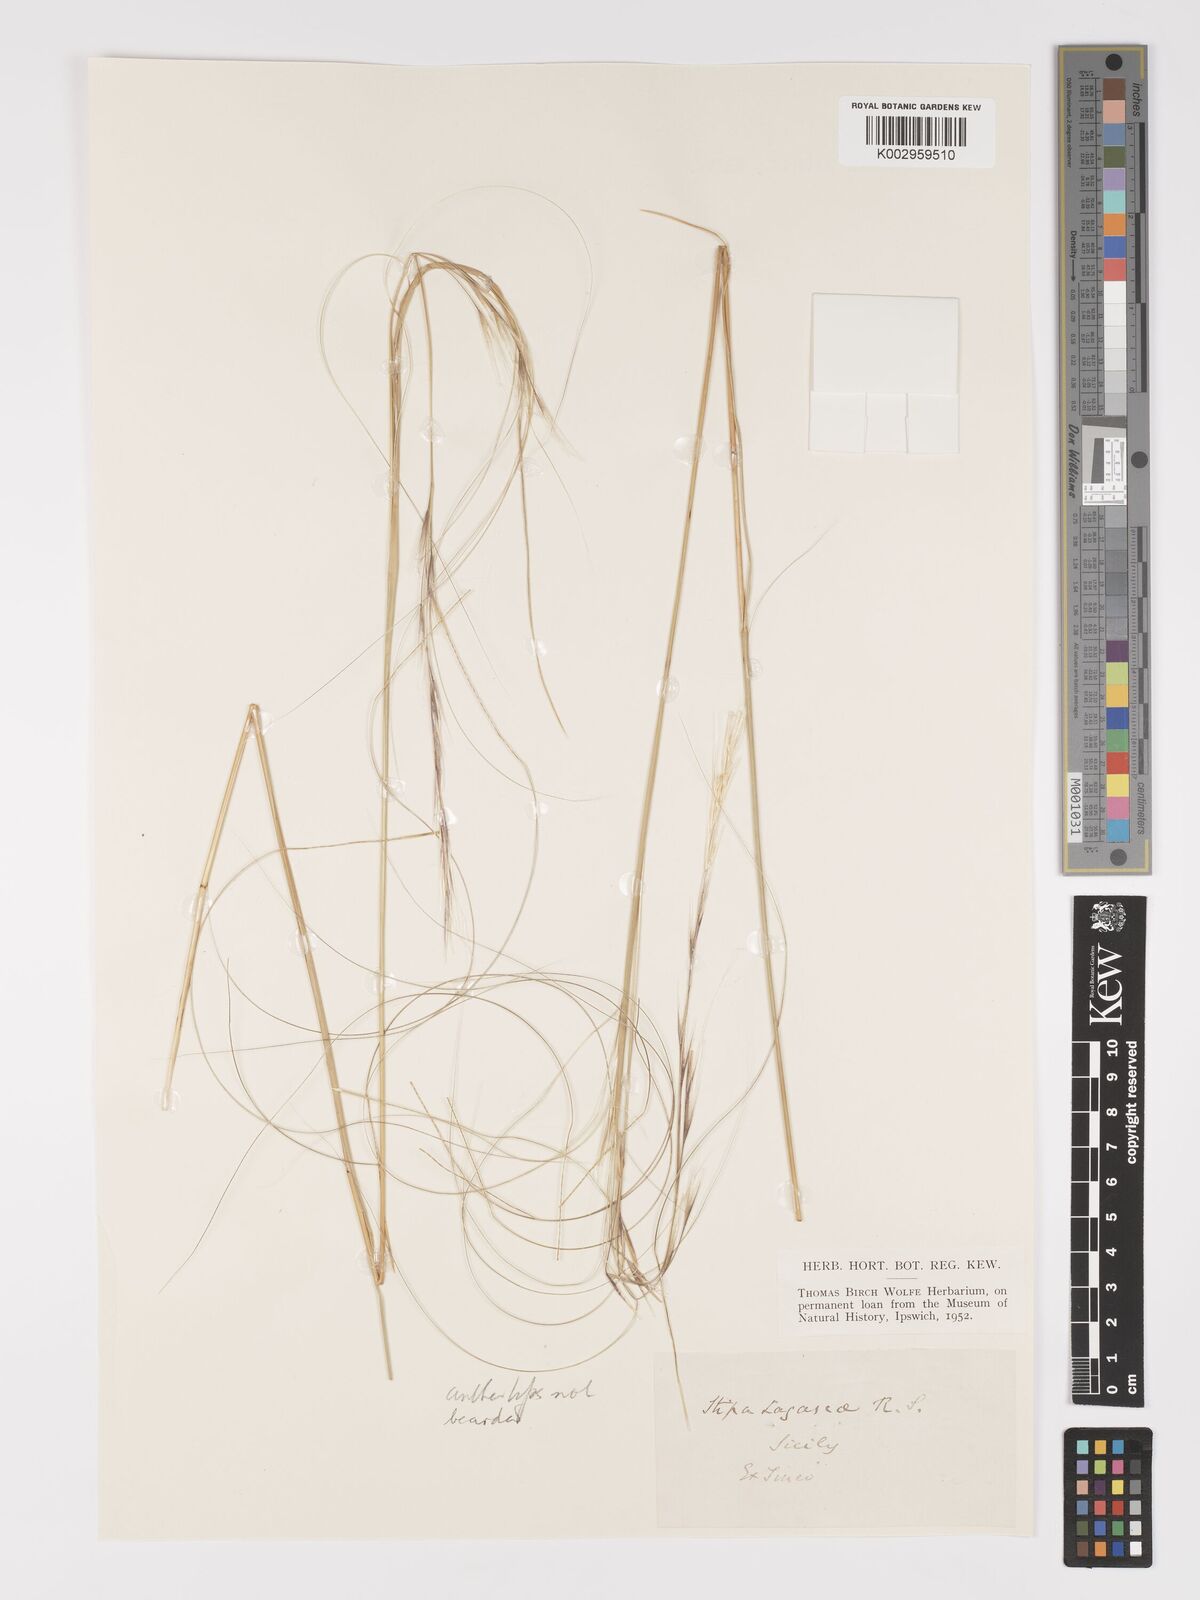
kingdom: Plantae
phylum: Tracheophyta
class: Liliopsida
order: Poales
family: Poaceae
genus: Stipa
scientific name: Stipa holosericea
